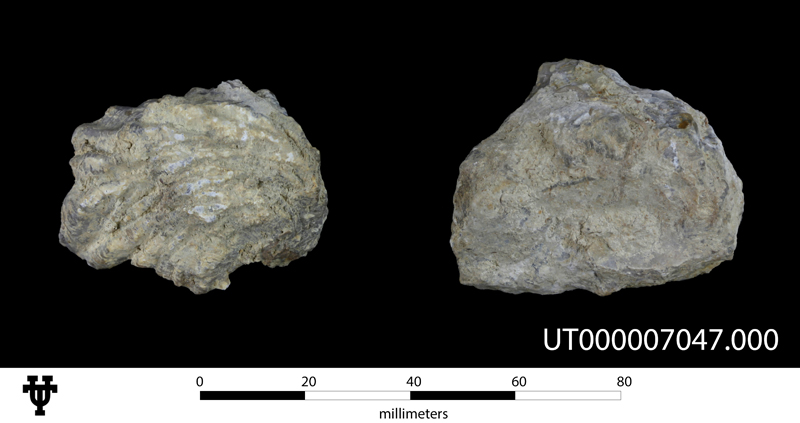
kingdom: Animalia
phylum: Mollusca
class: Bivalvia
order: Limida
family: Limidae
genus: Ctenostreon
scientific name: Ctenostreon
